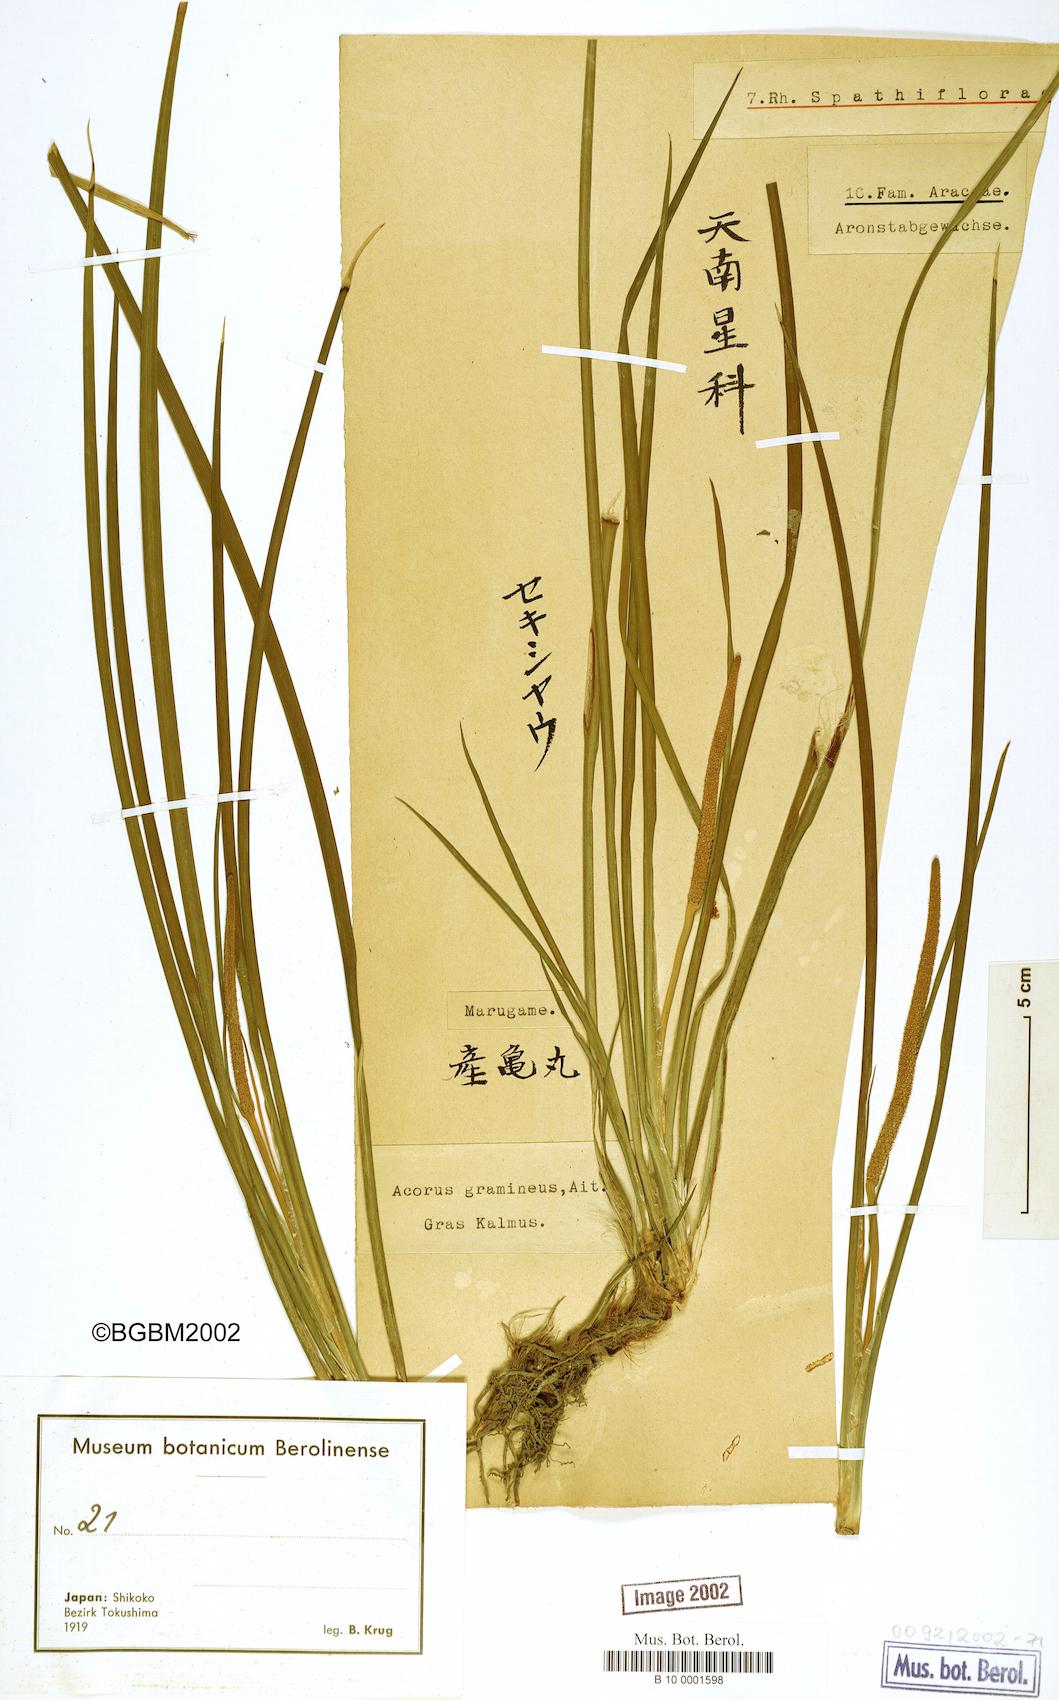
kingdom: Plantae
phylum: Tracheophyta
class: Liliopsida
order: Acorales
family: Acoraceae
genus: Acorus
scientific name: Acorus gramineus
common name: Slender sweet-flag
